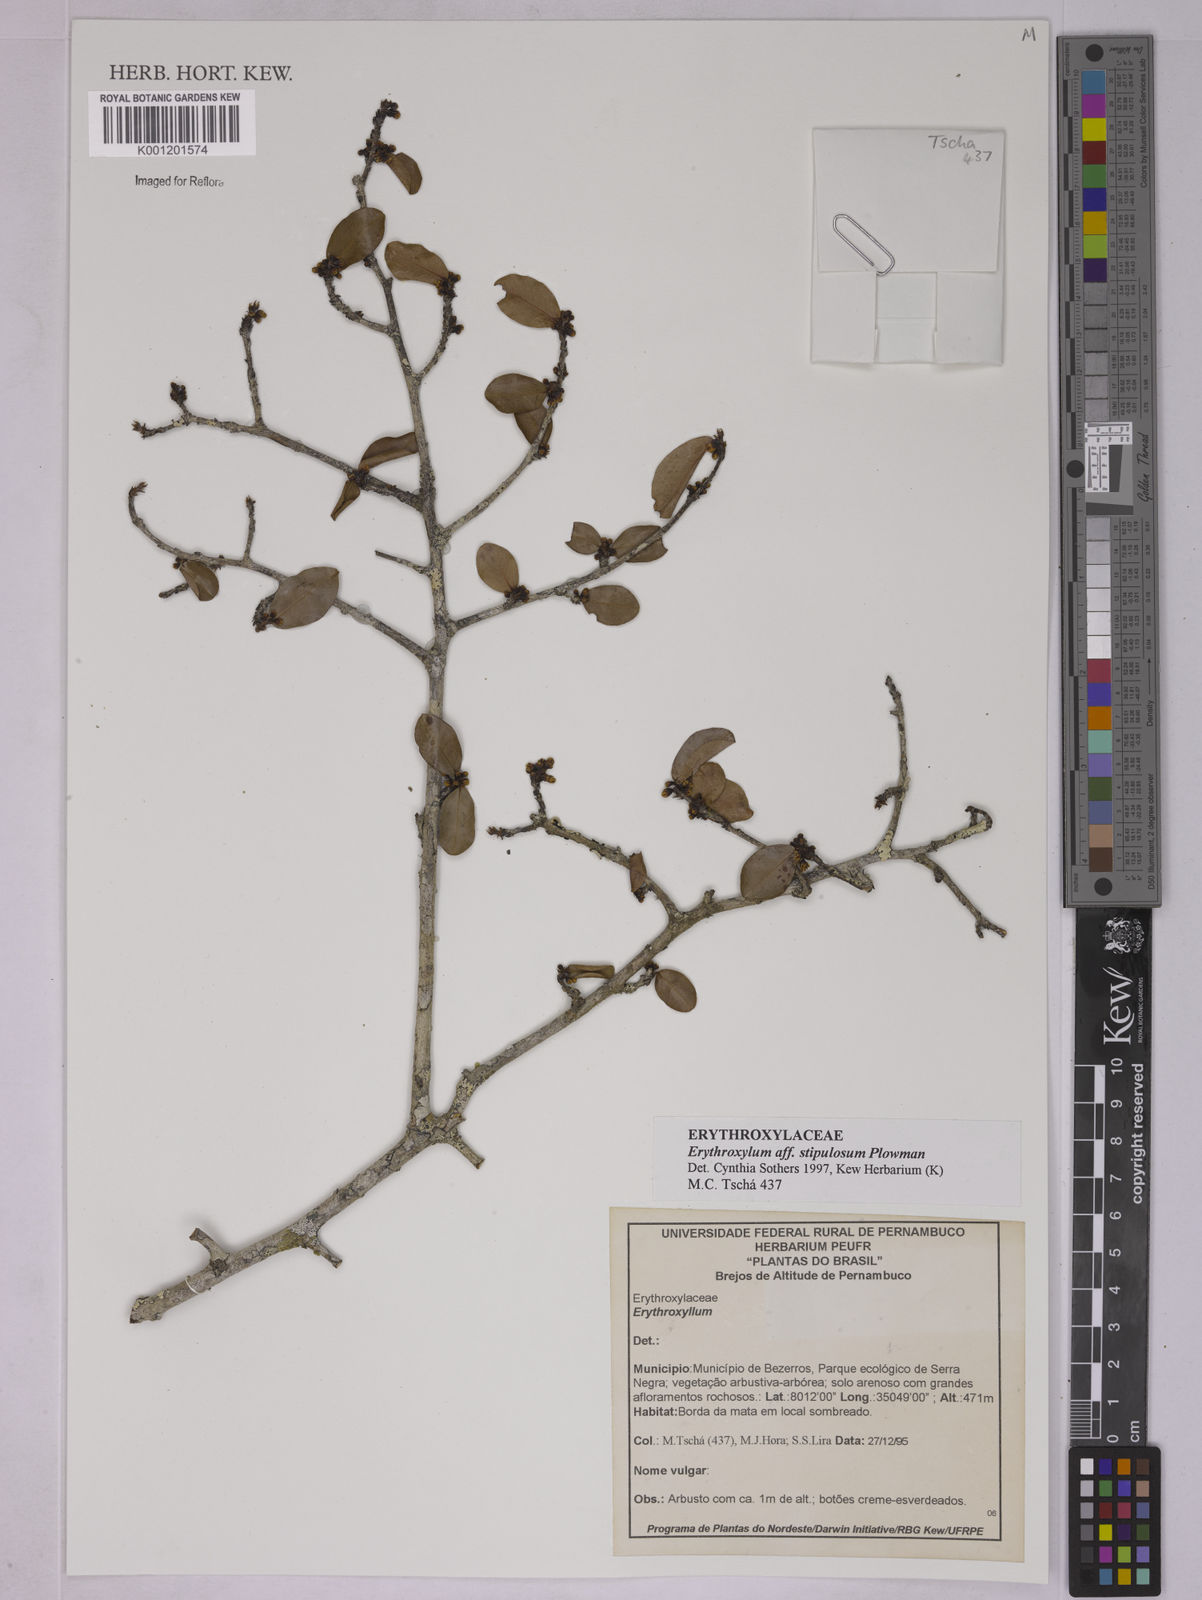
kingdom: Plantae
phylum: Tracheophyta
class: Magnoliopsida
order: Malpighiales
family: Erythroxylaceae
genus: Erythroxylum
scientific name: Erythroxylum stipulosum
